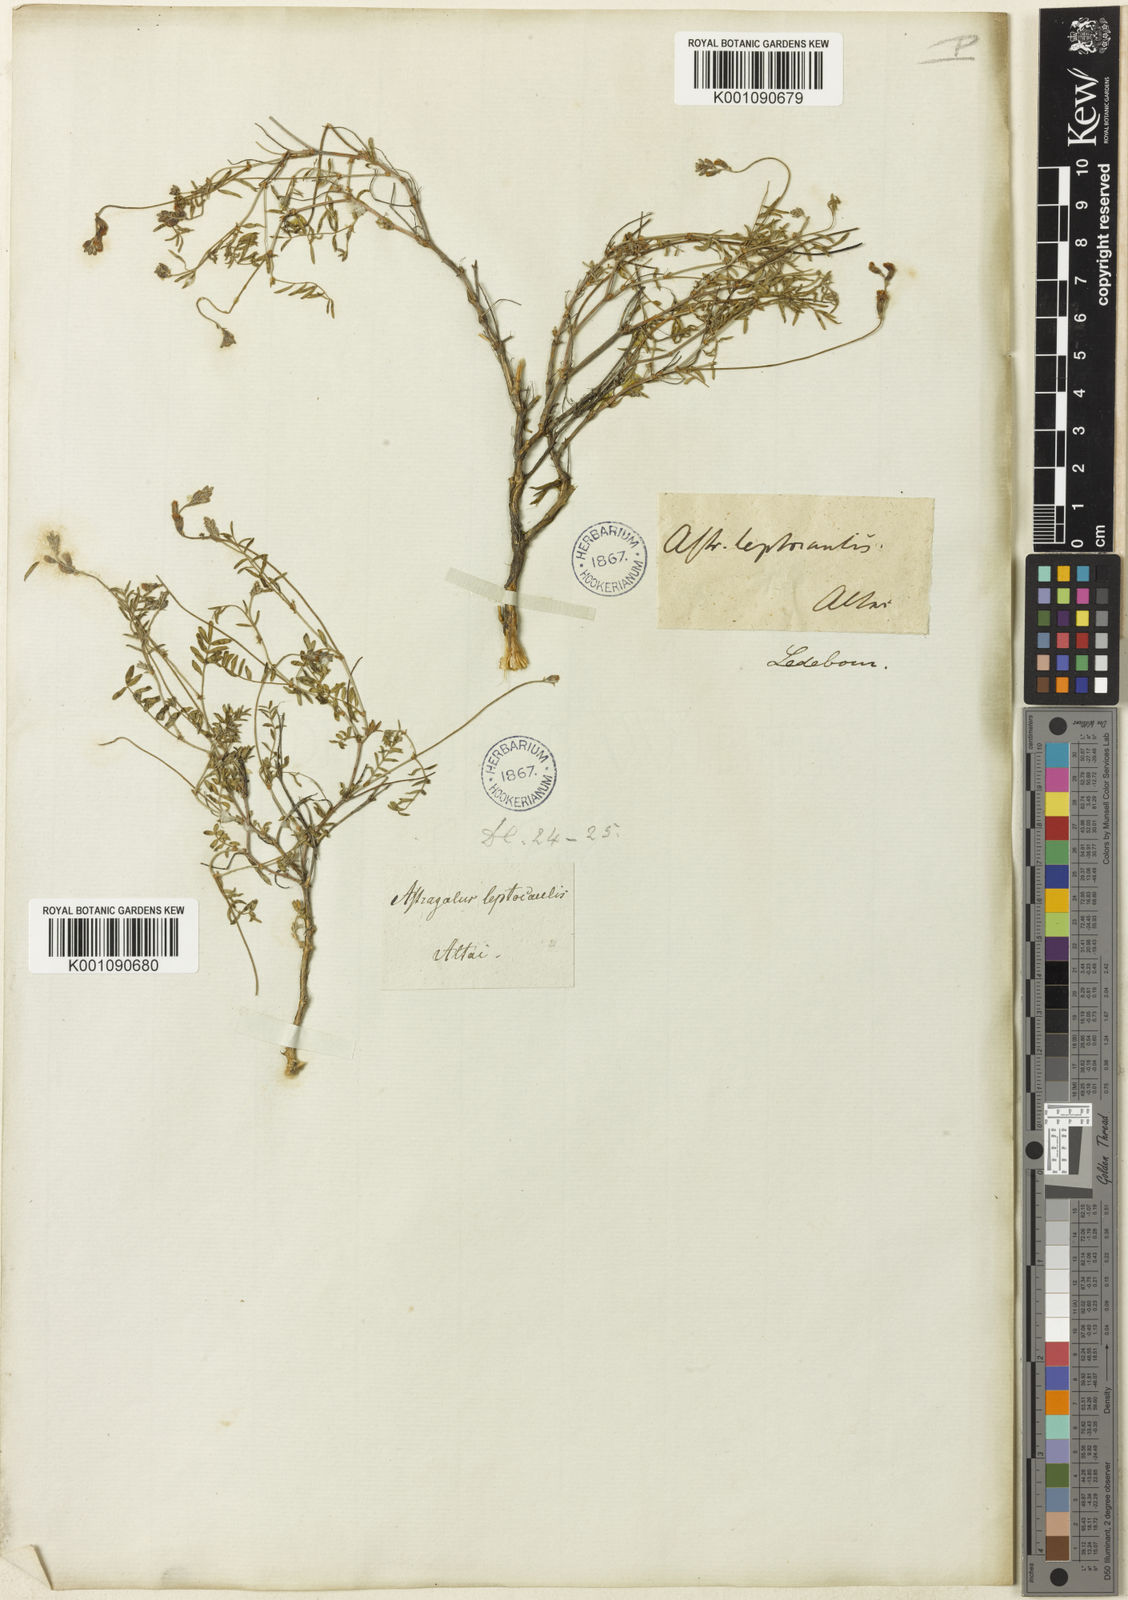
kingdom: Plantae
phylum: Tracheophyta
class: Magnoliopsida
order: Fabales
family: Fabaceae
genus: Astragalus
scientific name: Astragalus
